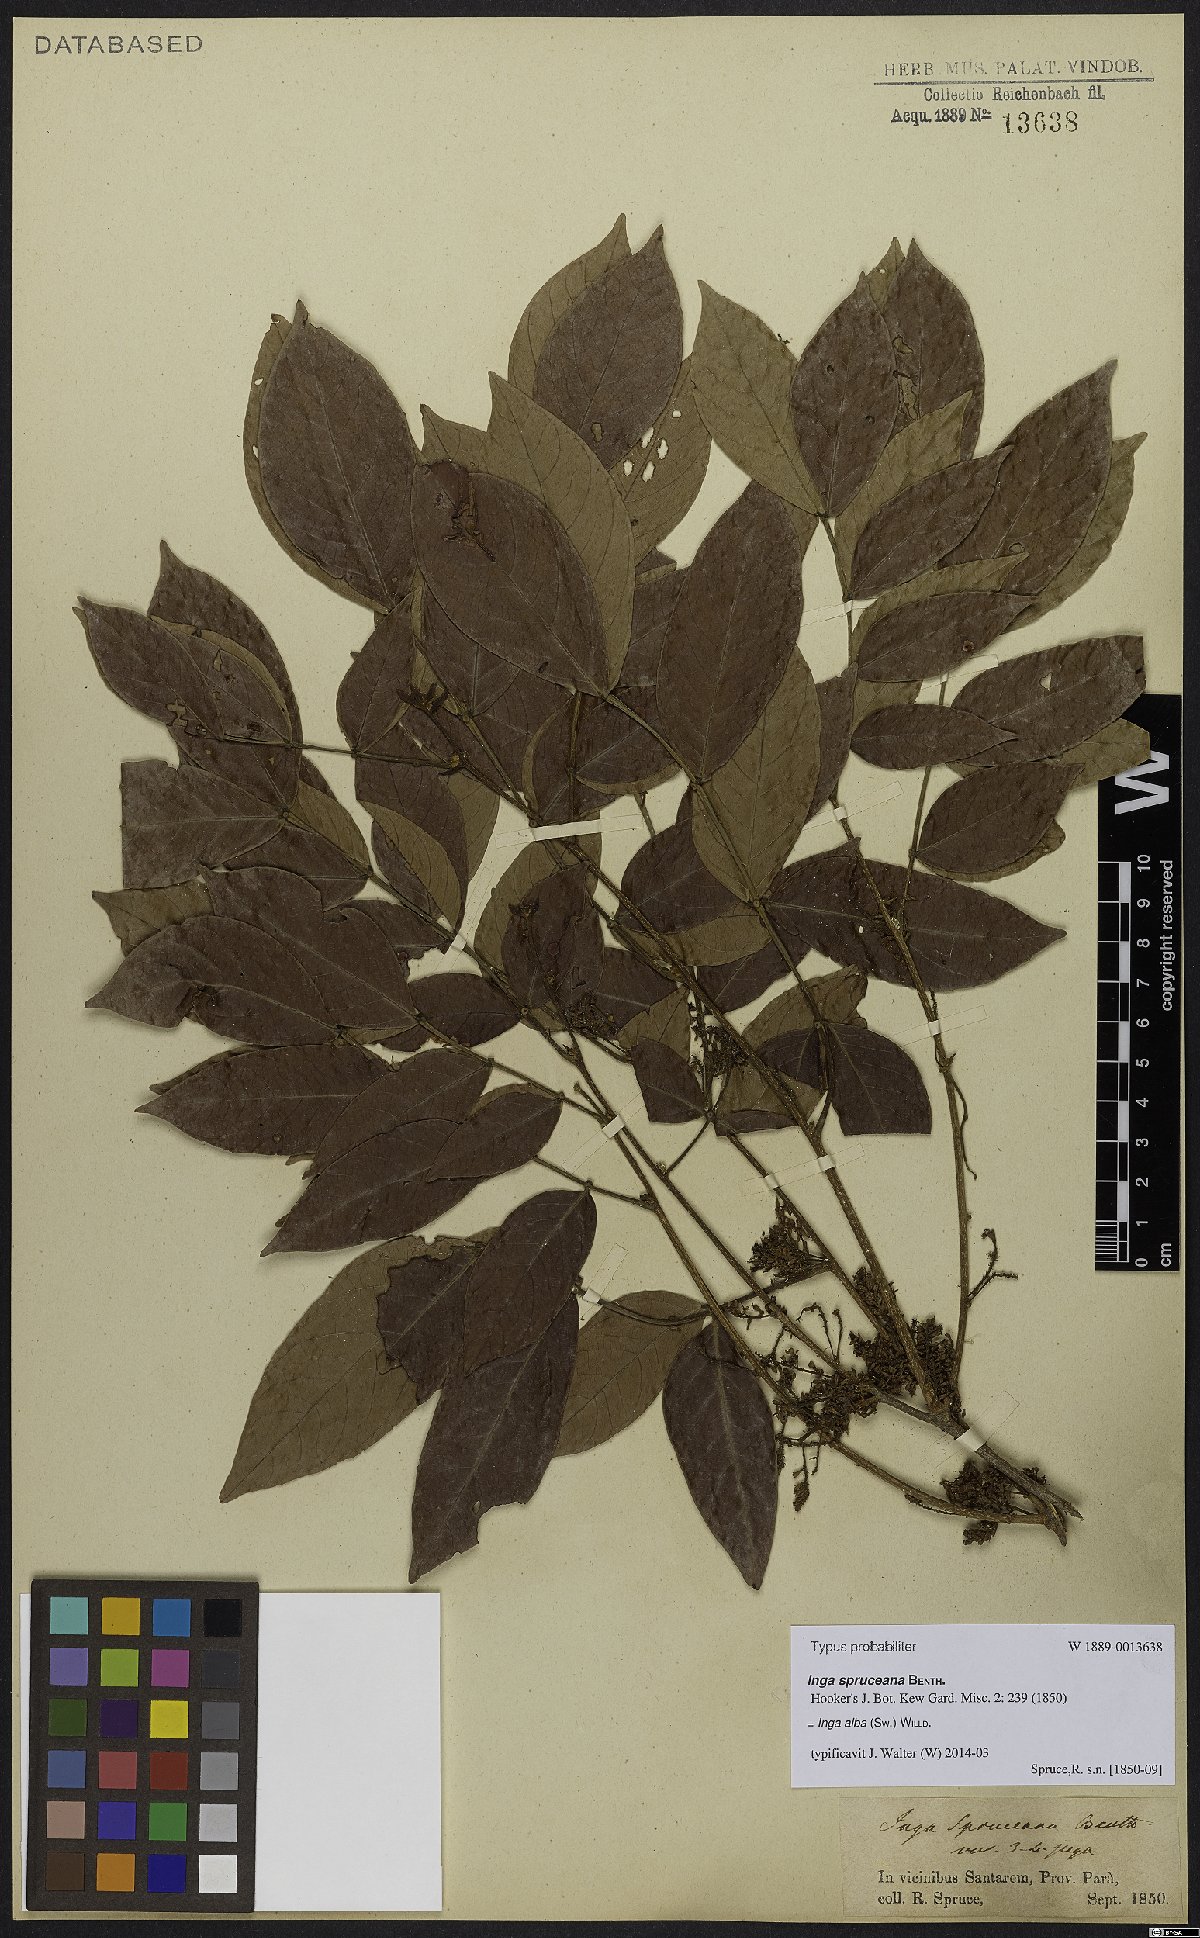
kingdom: Plantae
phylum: Tracheophyta
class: Magnoliopsida
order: Fabales
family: Fabaceae
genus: Inga
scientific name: Inga alba
